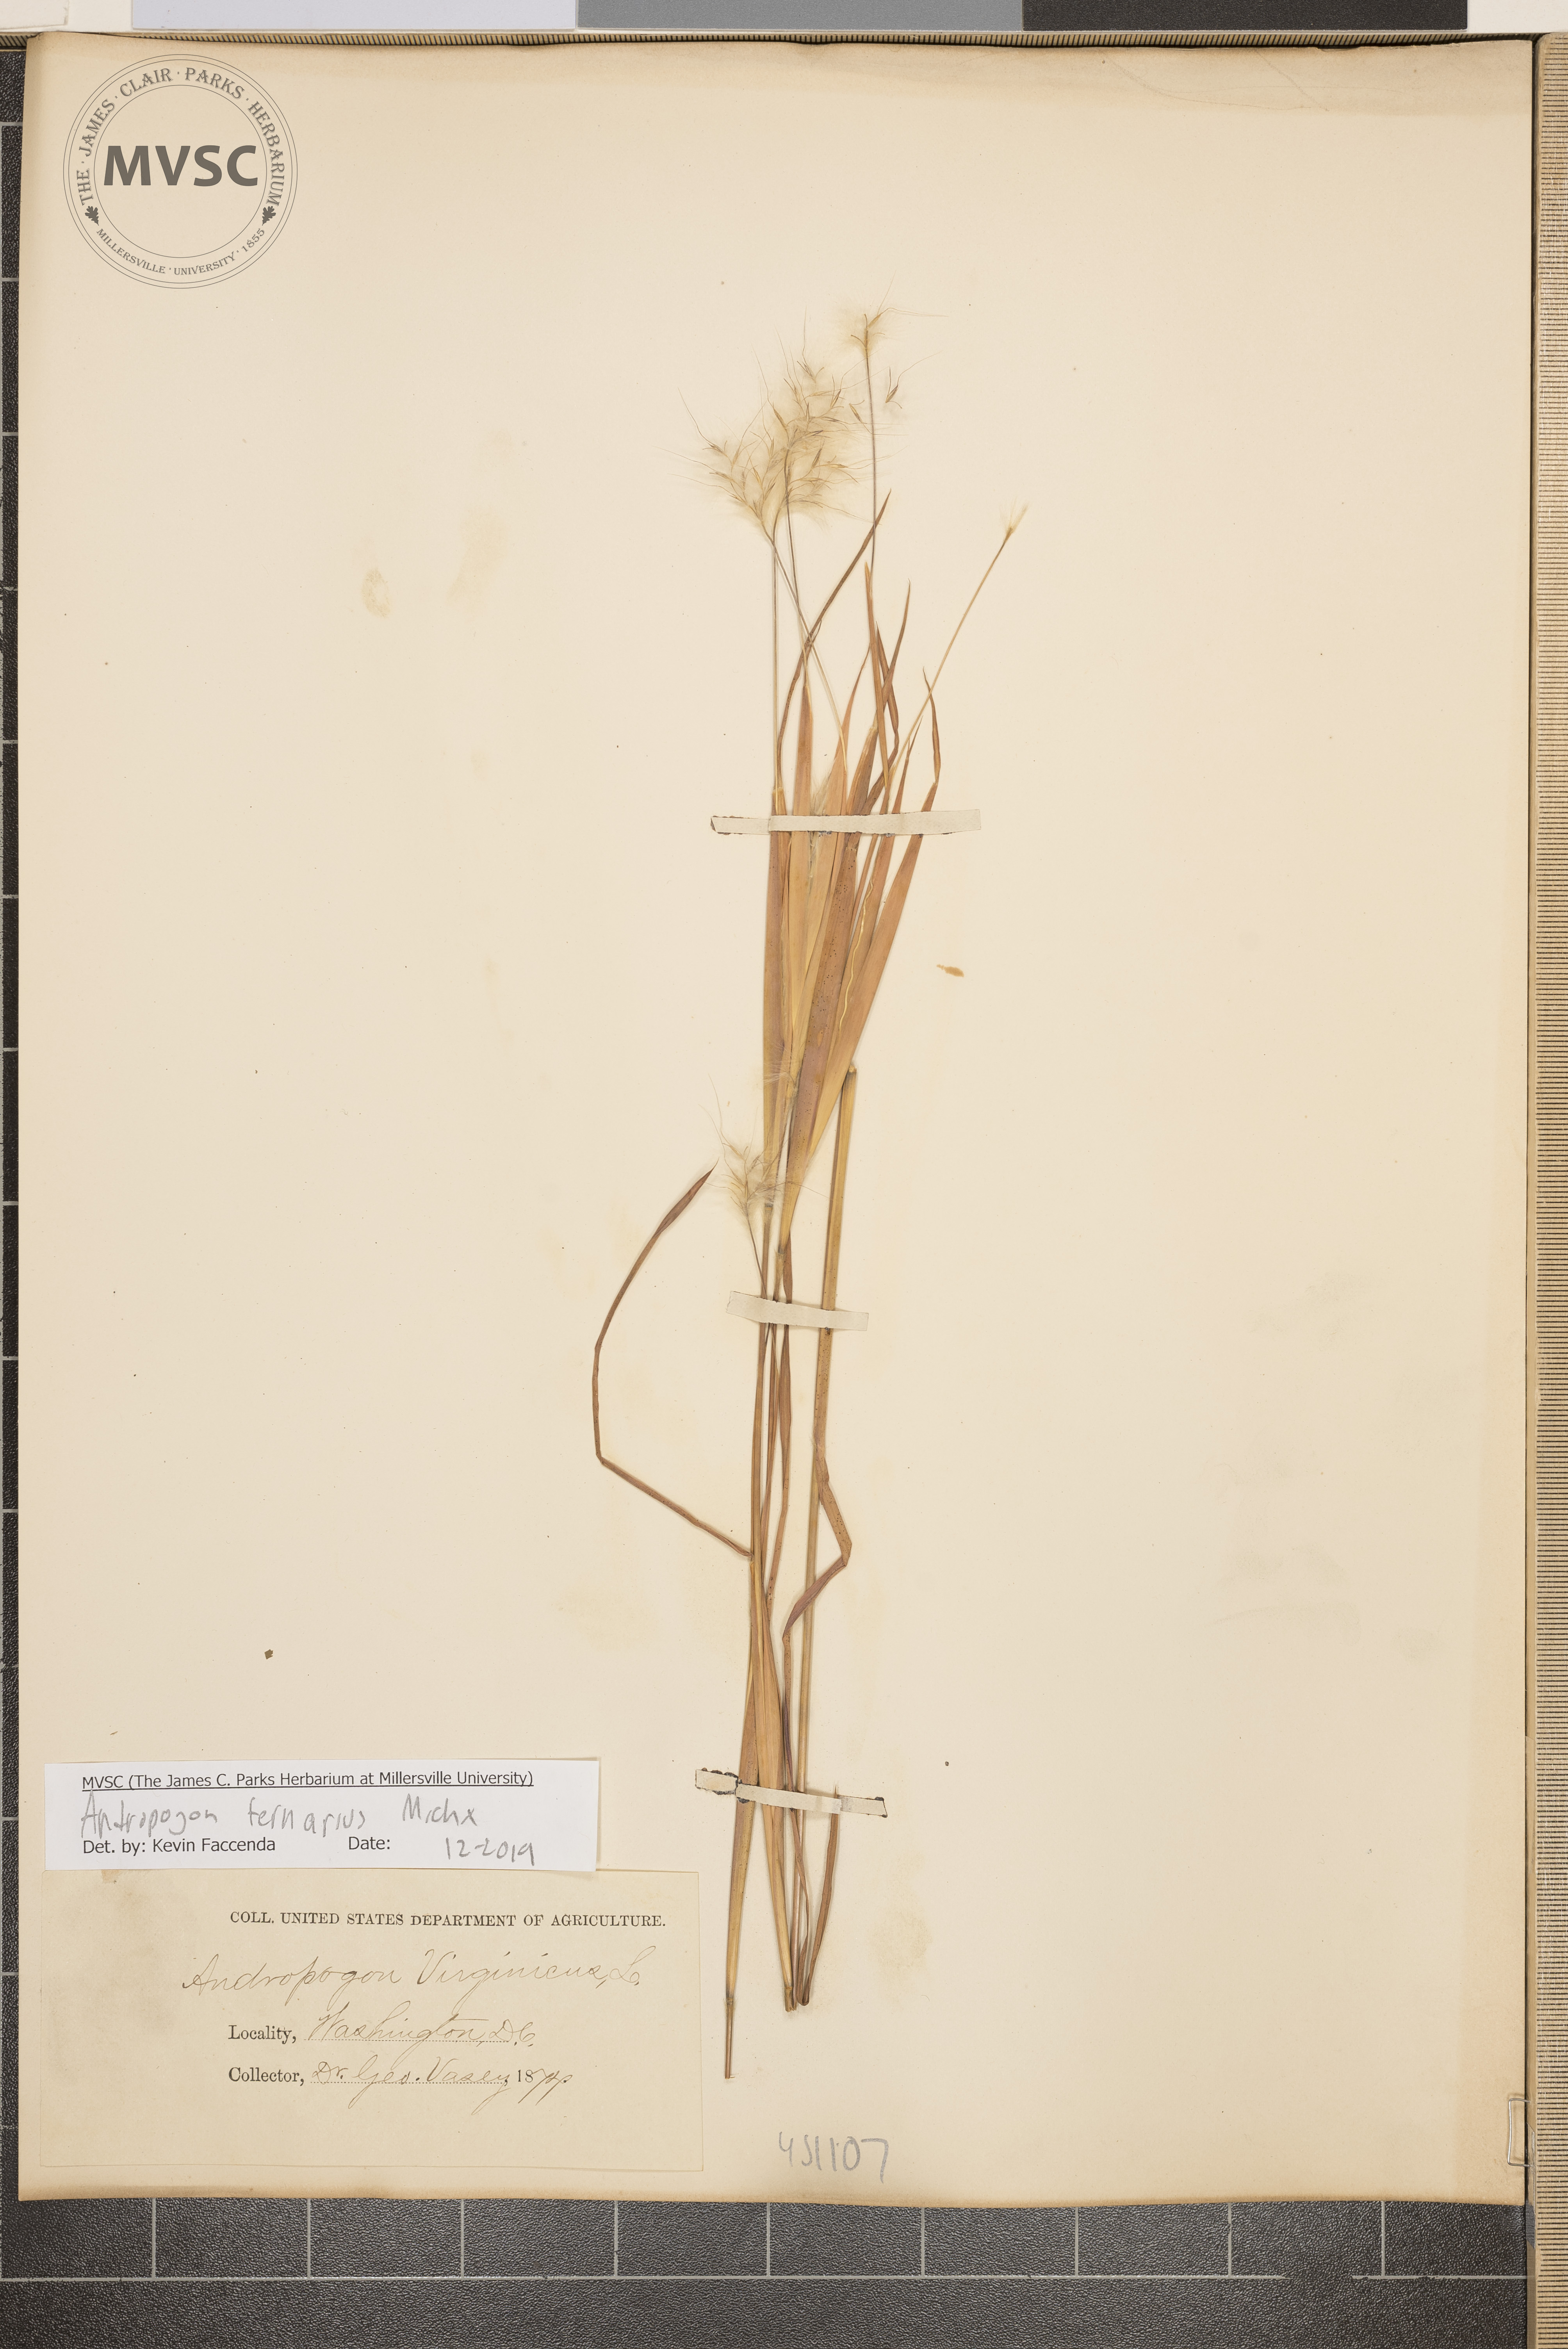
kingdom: Plantae
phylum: Tracheophyta
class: Liliopsida
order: Poales
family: Poaceae
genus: Andropogon
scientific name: Andropogon ternarius
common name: Split bluestem
